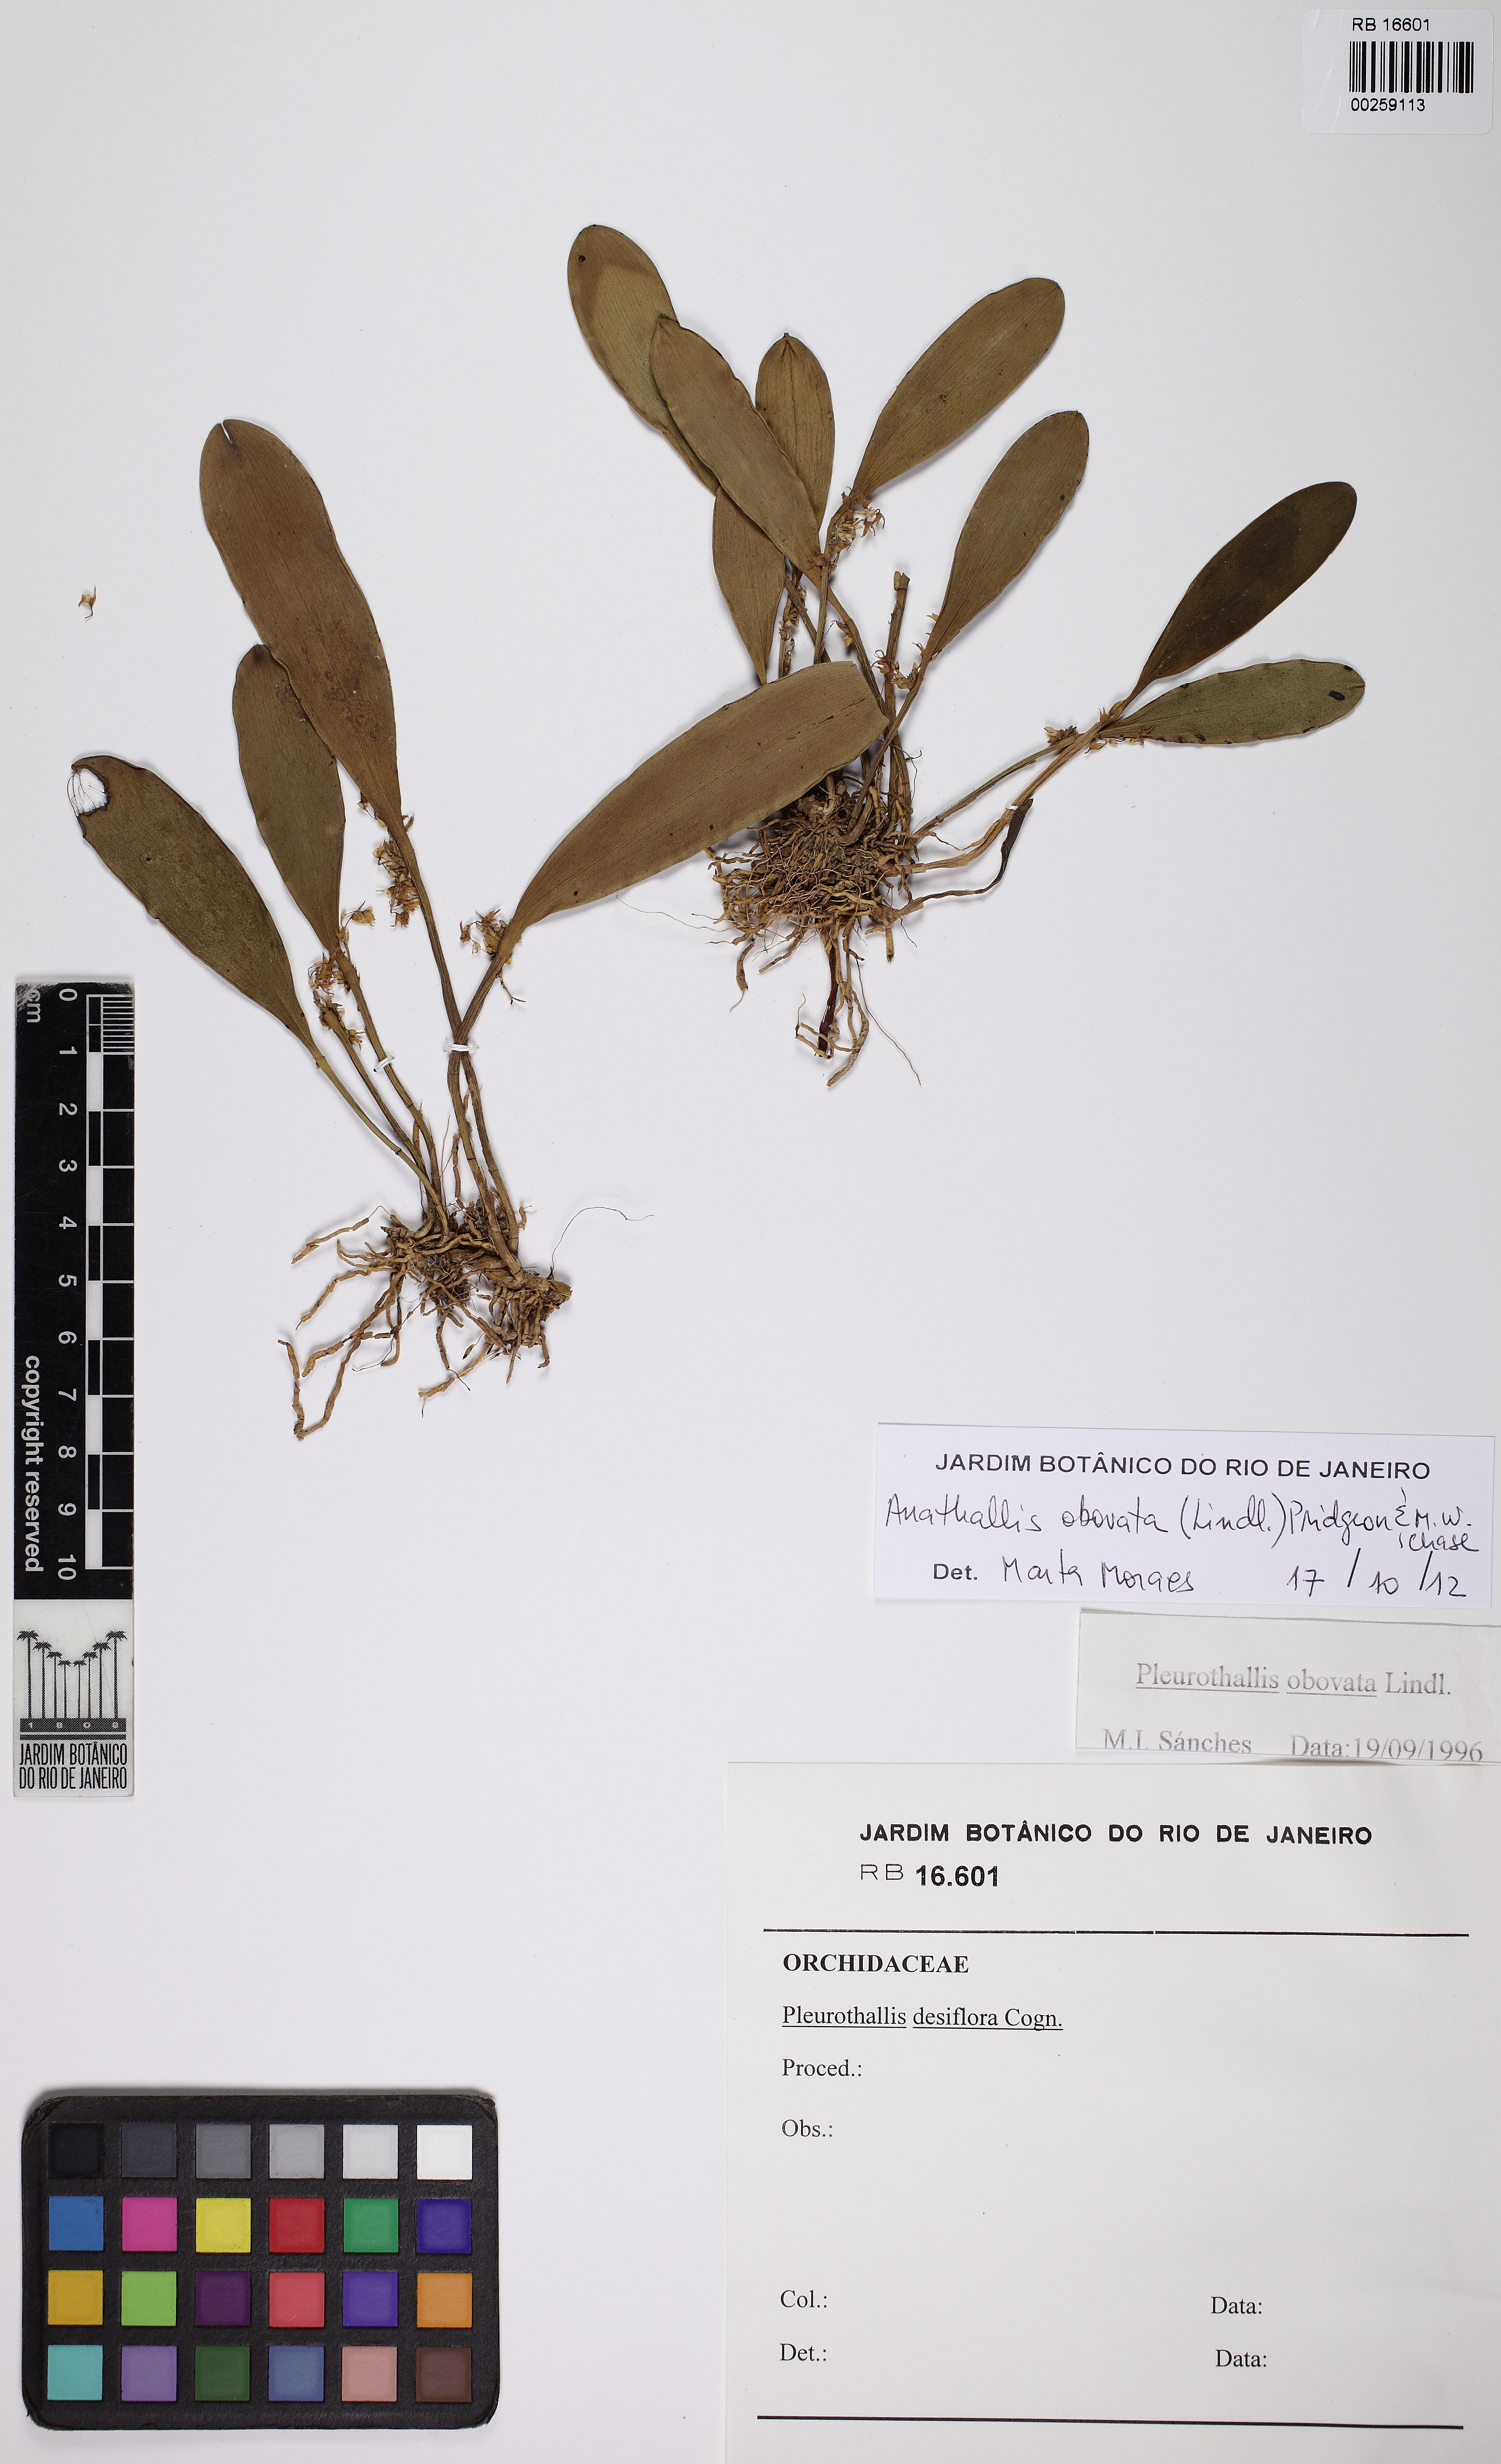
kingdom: Plantae
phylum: Tracheophyta
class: Liliopsida
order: Asparagales
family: Orchidaceae
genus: Anathallis
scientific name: Anathallis obovata
